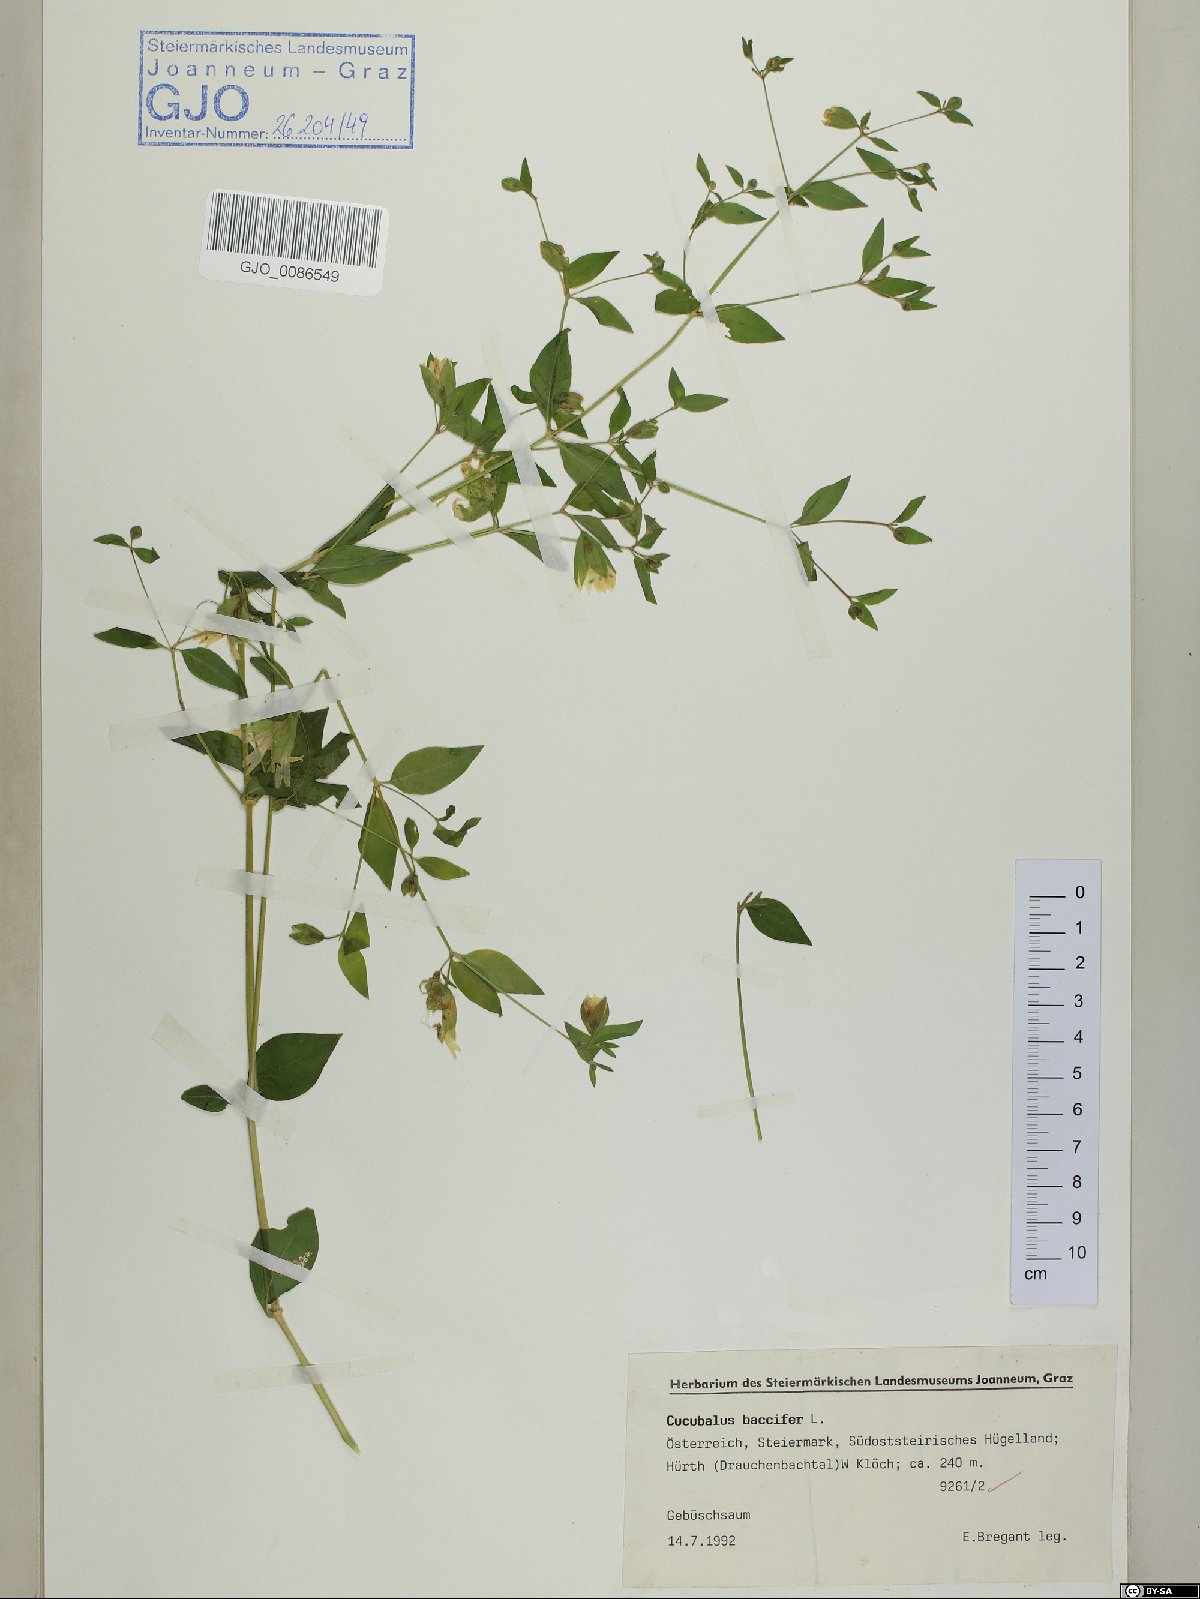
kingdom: Plantae
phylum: Tracheophyta
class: Magnoliopsida
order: Caryophyllales
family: Caryophyllaceae
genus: Silene
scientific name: Silene baccifera
